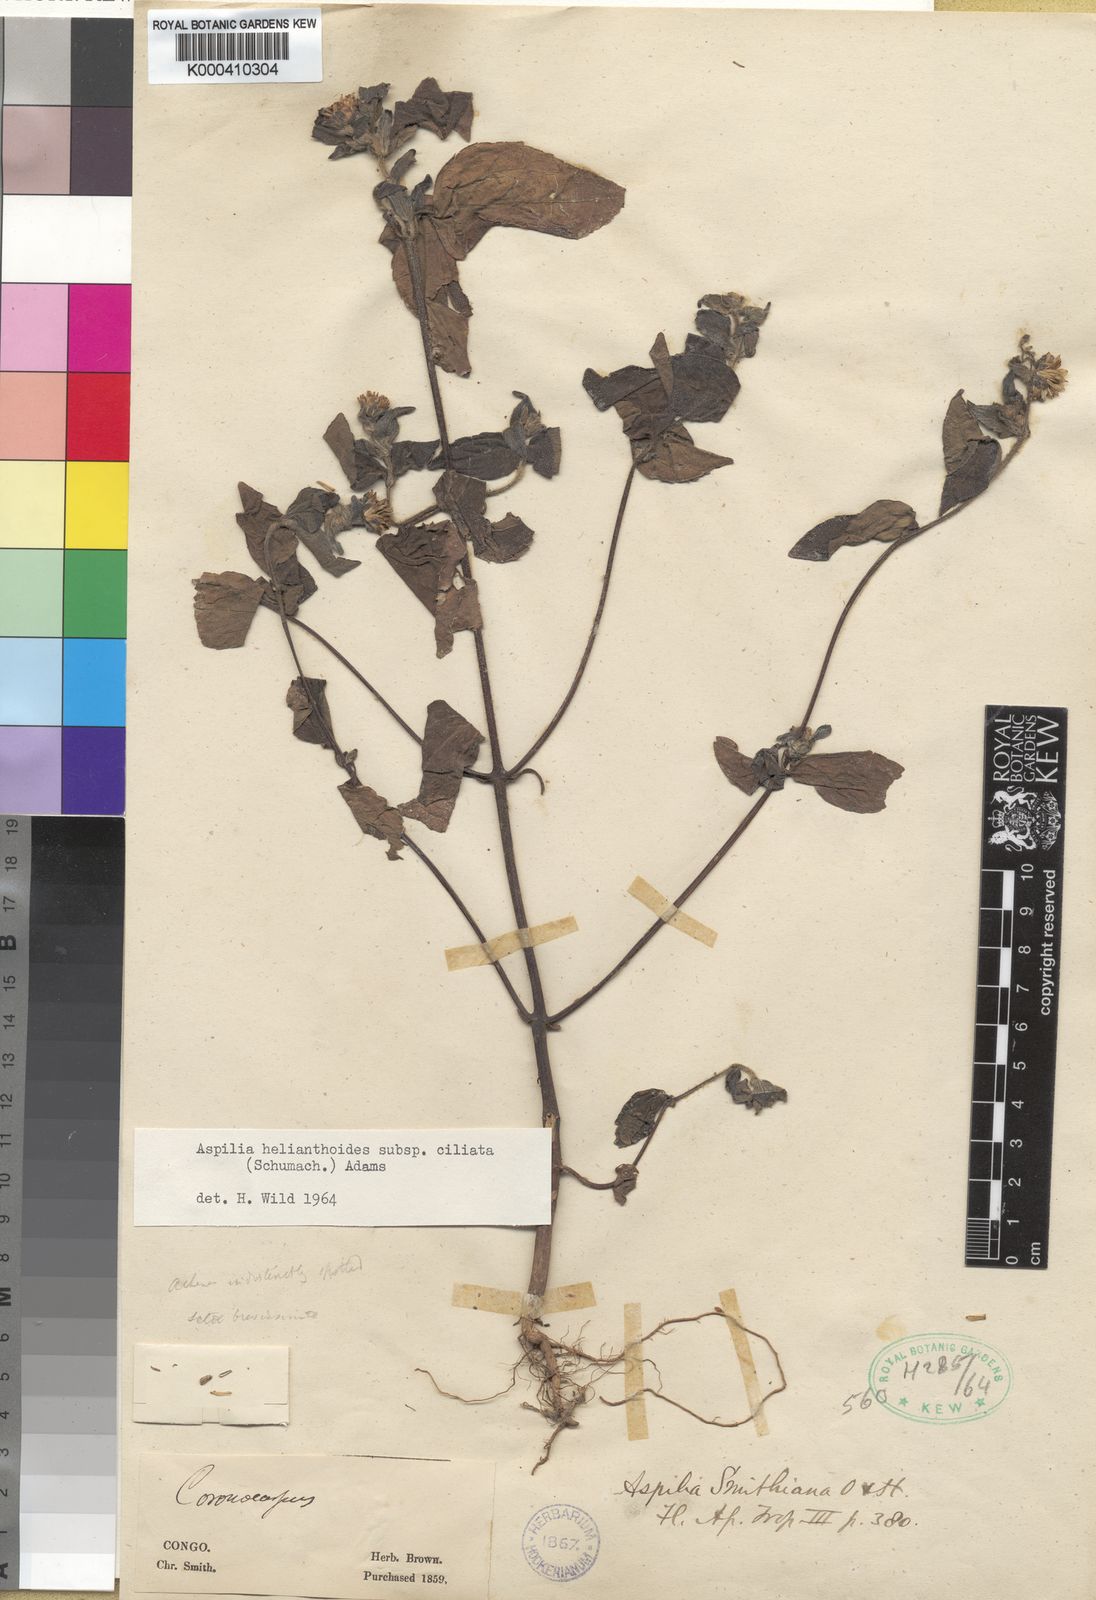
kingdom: Plantae
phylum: Tracheophyta
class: Magnoliopsida
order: Asterales
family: Asteraceae
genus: Aspilia
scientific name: Aspilia ciliata
